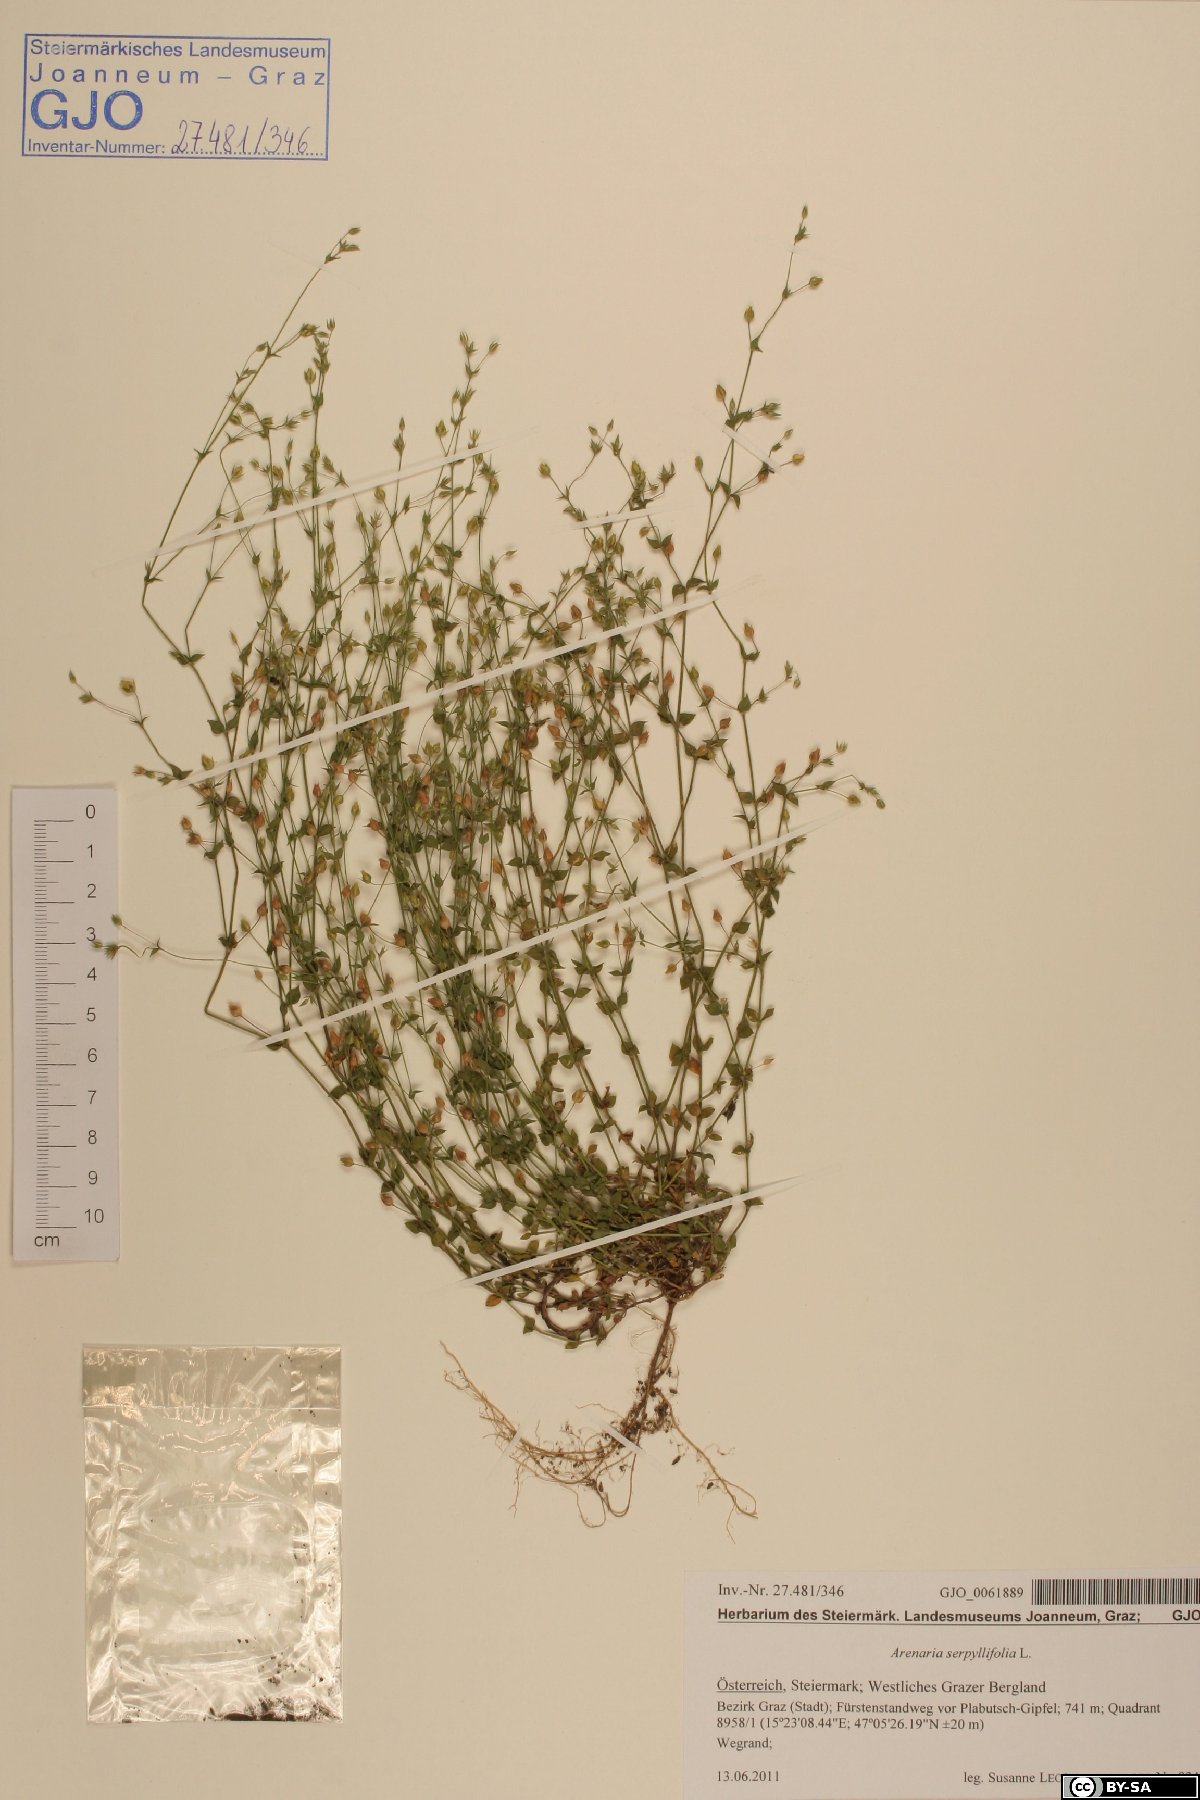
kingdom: Plantae
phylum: Tracheophyta
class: Magnoliopsida
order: Caryophyllales
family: Caryophyllaceae
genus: Arenaria
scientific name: Arenaria serpyllifolia
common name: Thyme-leaved sandwort
